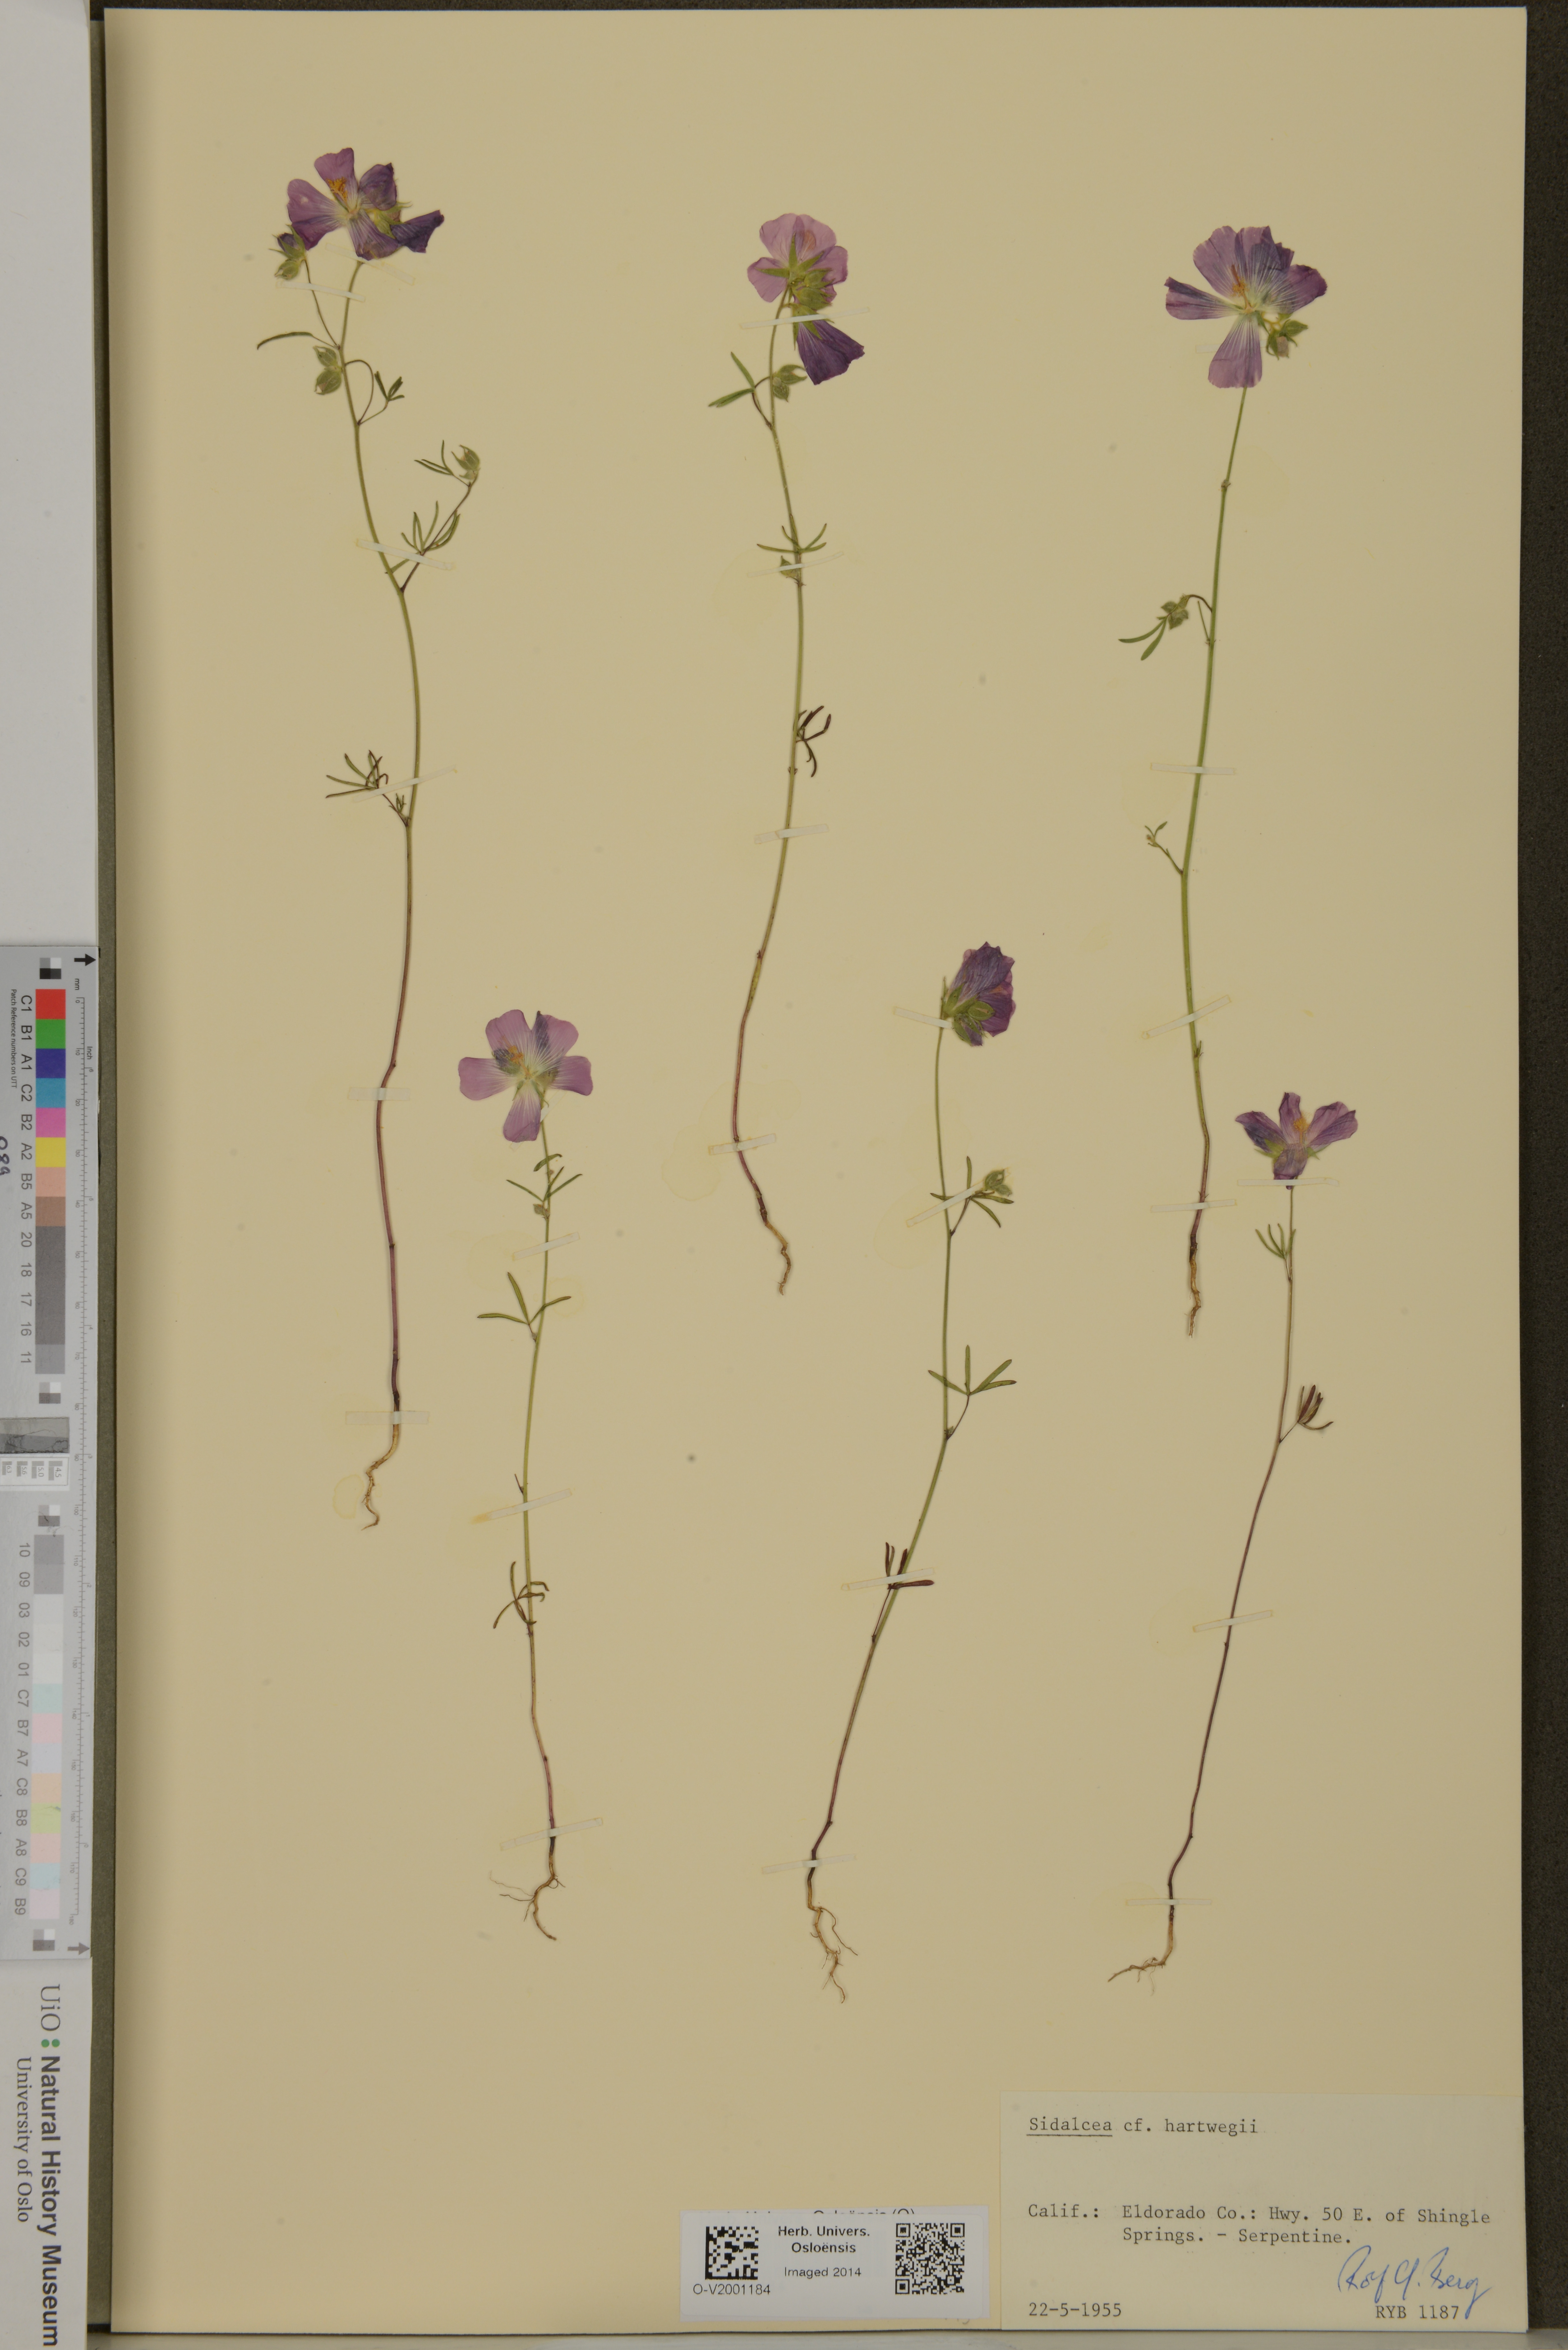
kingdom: Plantae
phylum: Tracheophyta
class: Magnoliopsida
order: Malvales
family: Malvaceae
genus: Sidalcea
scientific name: Sidalcea hartwegii
